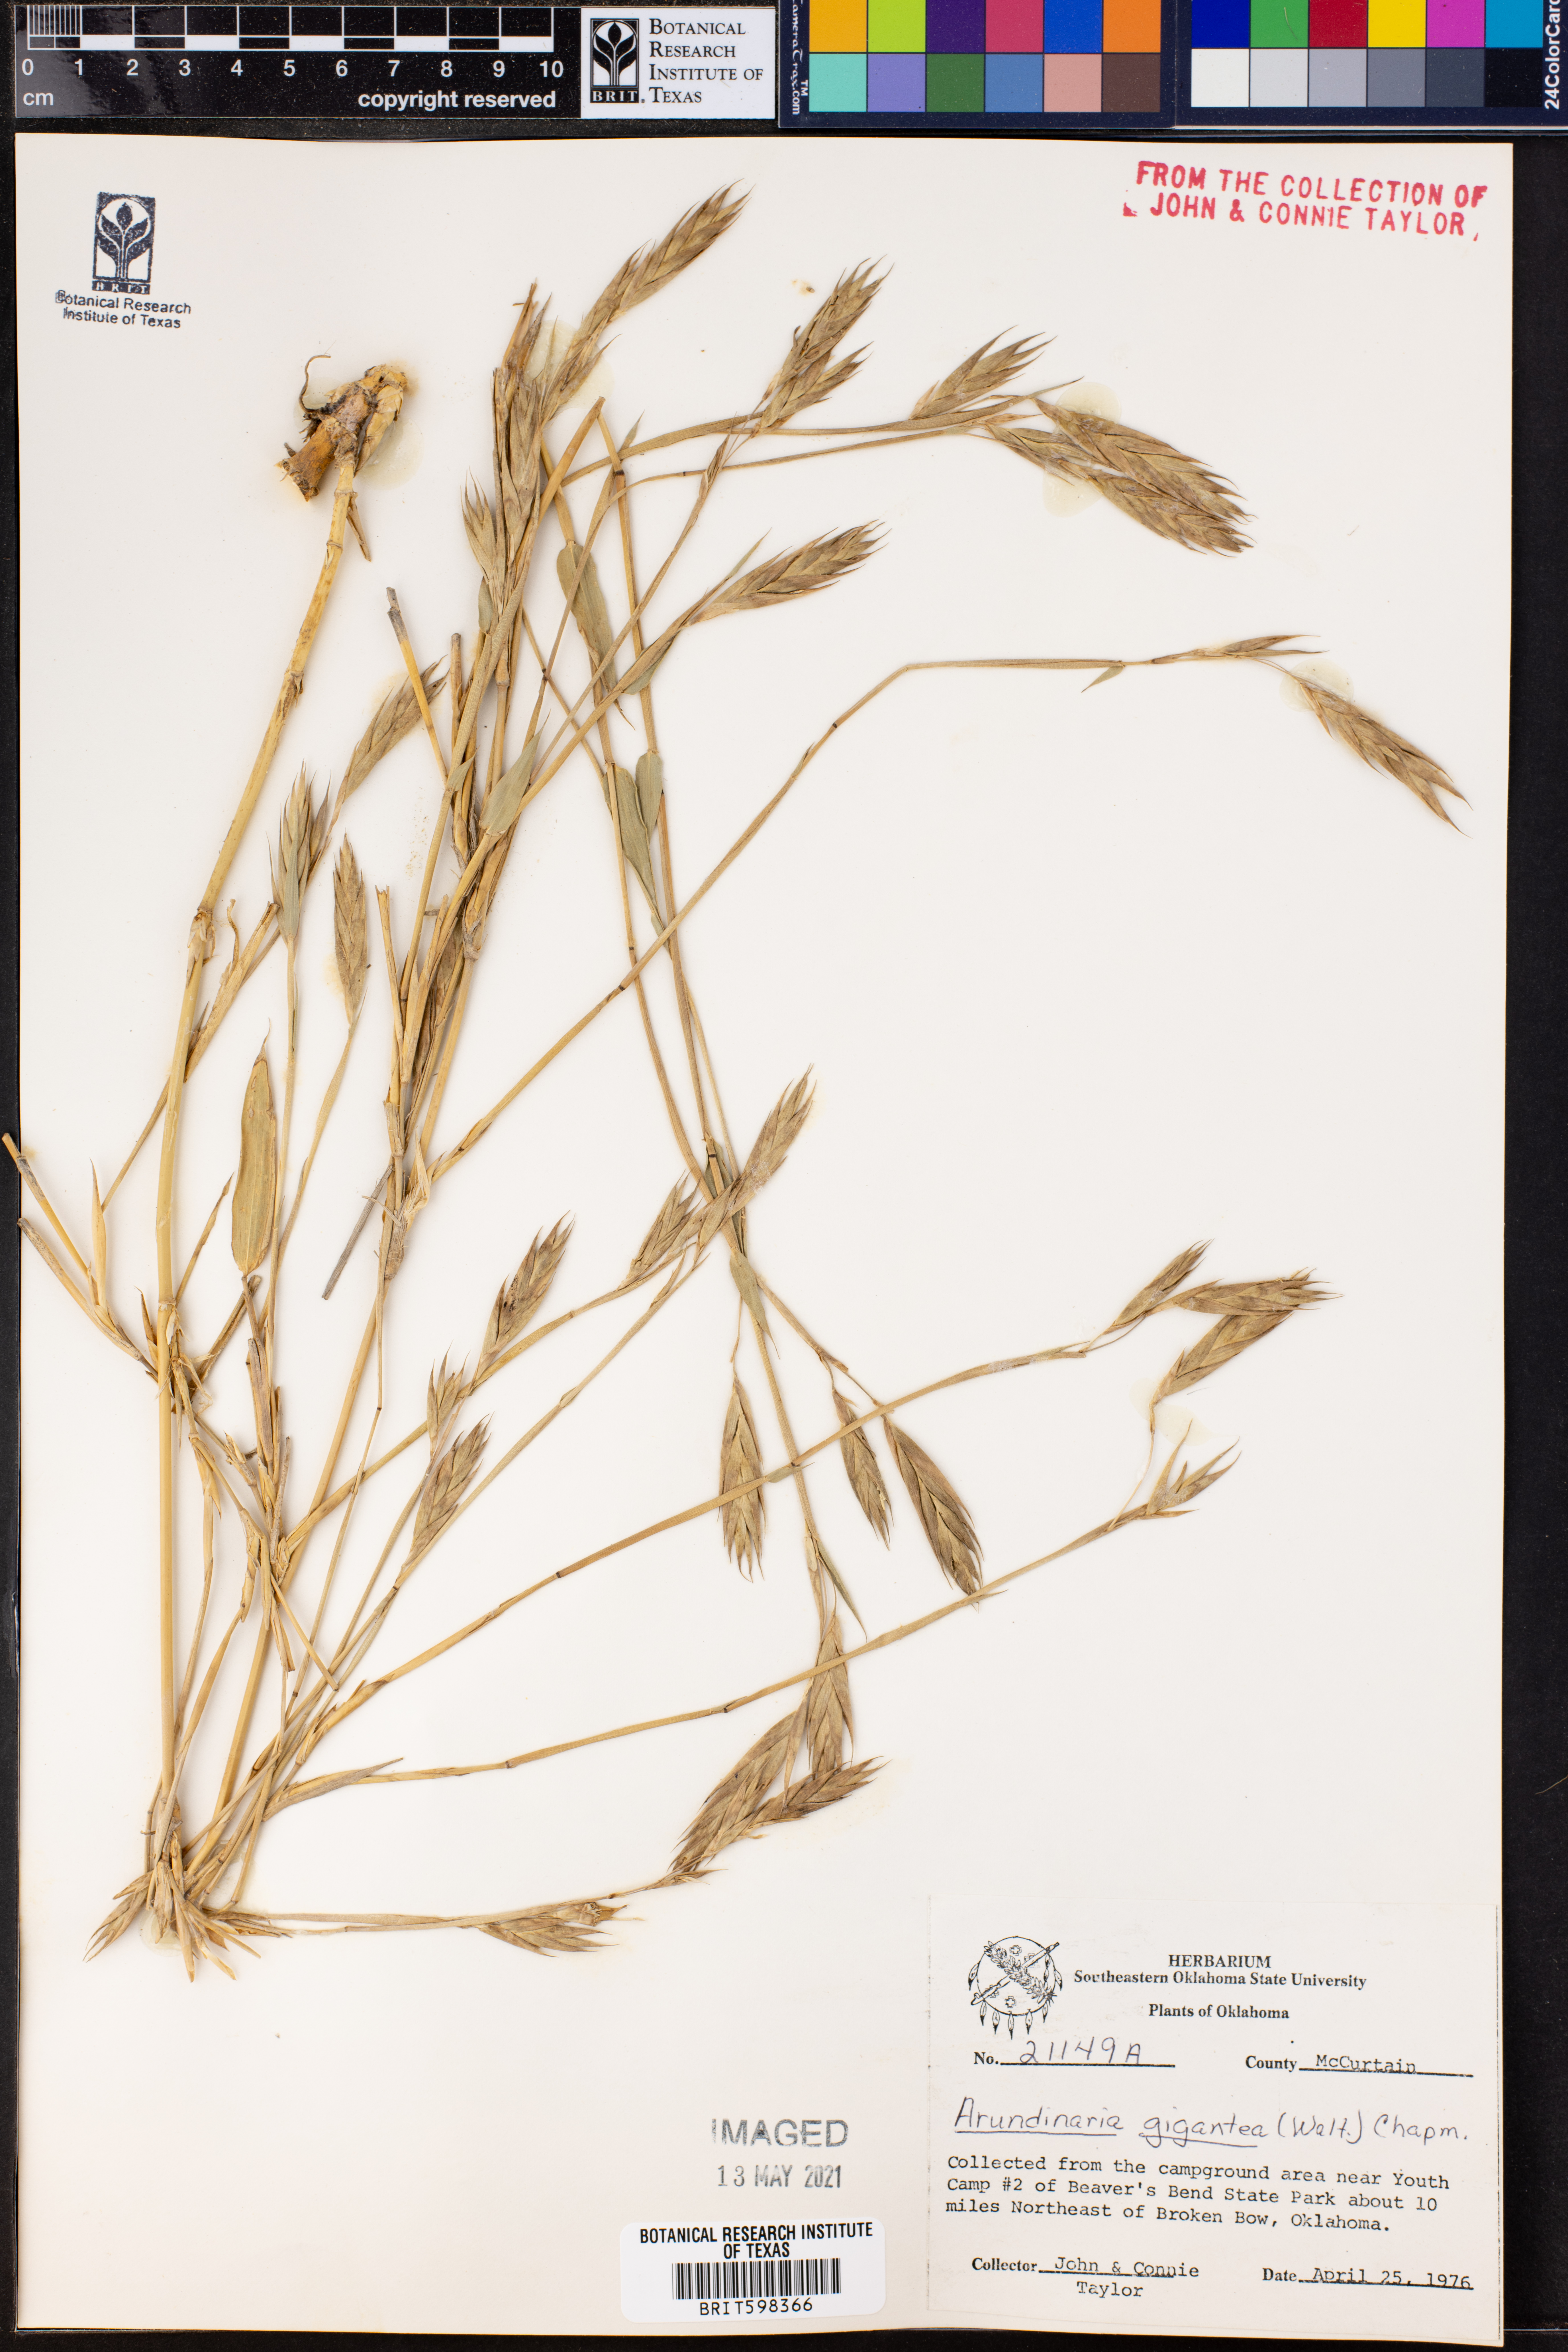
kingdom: Plantae
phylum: Tracheophyta
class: Liliopsida
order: Poales
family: Poaceae
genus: Arundinaria
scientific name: Arundinaria gigantea
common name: Giant cane
